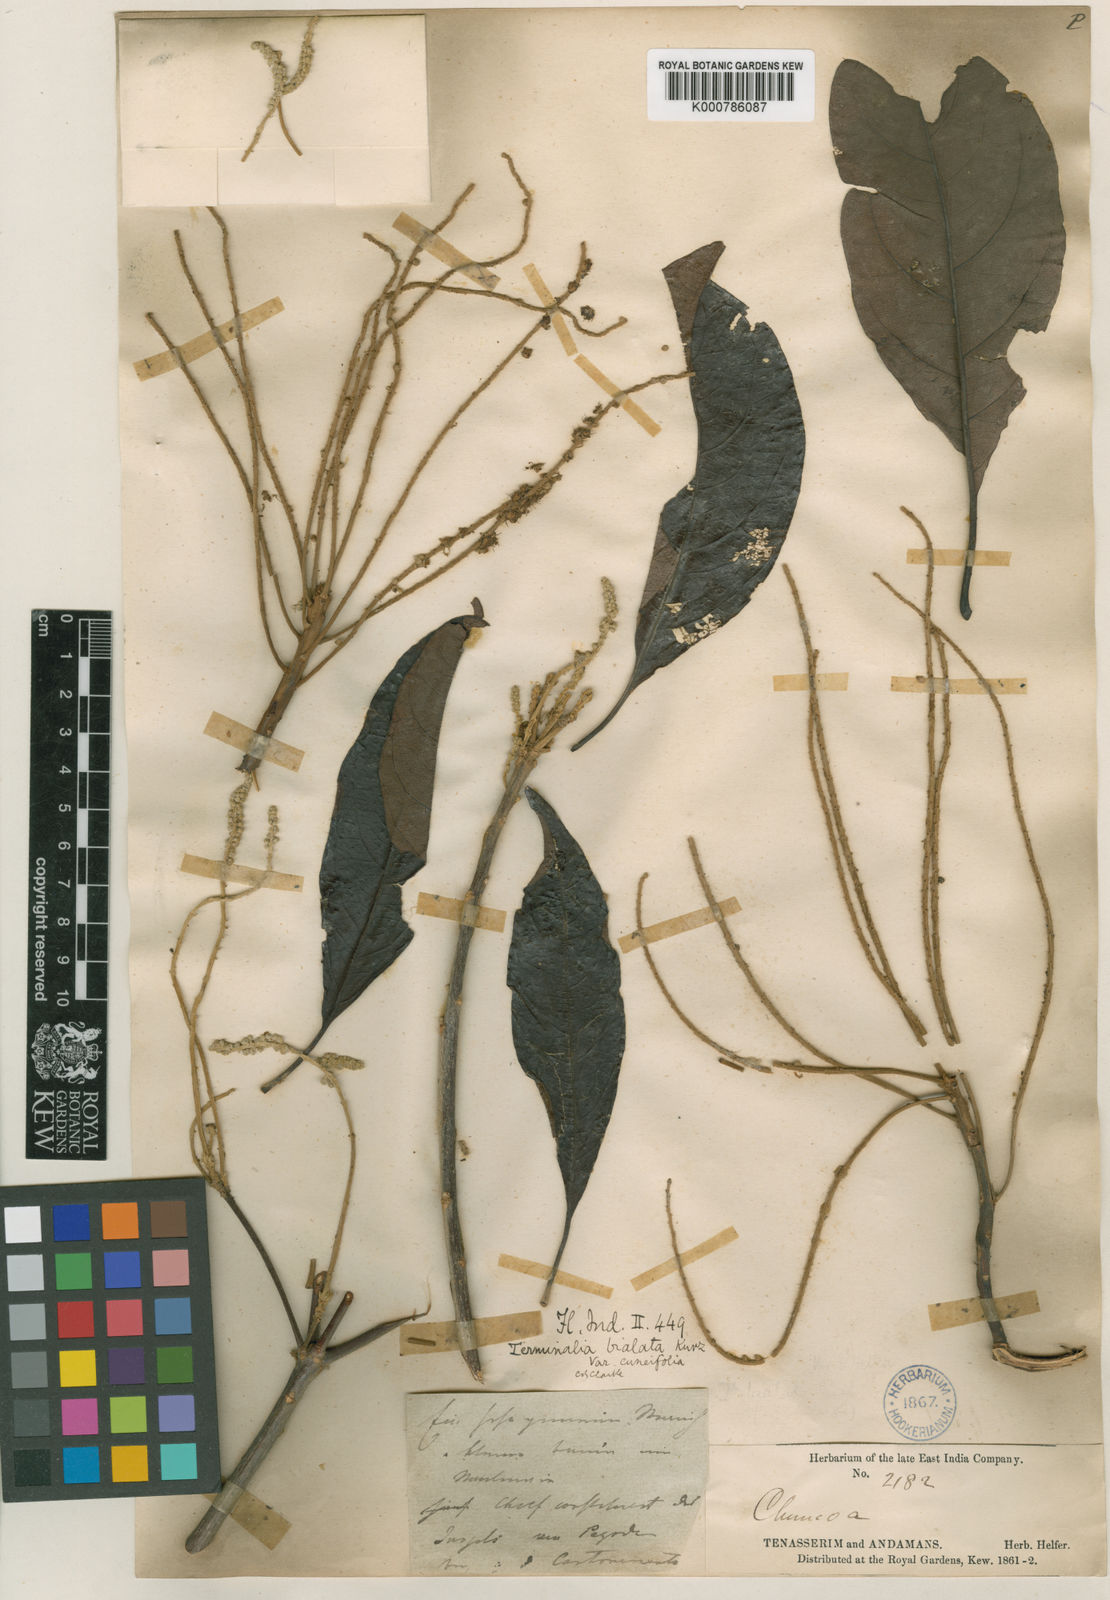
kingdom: Plantae
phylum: Tracheophyta
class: Magnoliopsida
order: Myrtales
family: Combretaceae
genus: Terminalia
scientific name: Terminalia
